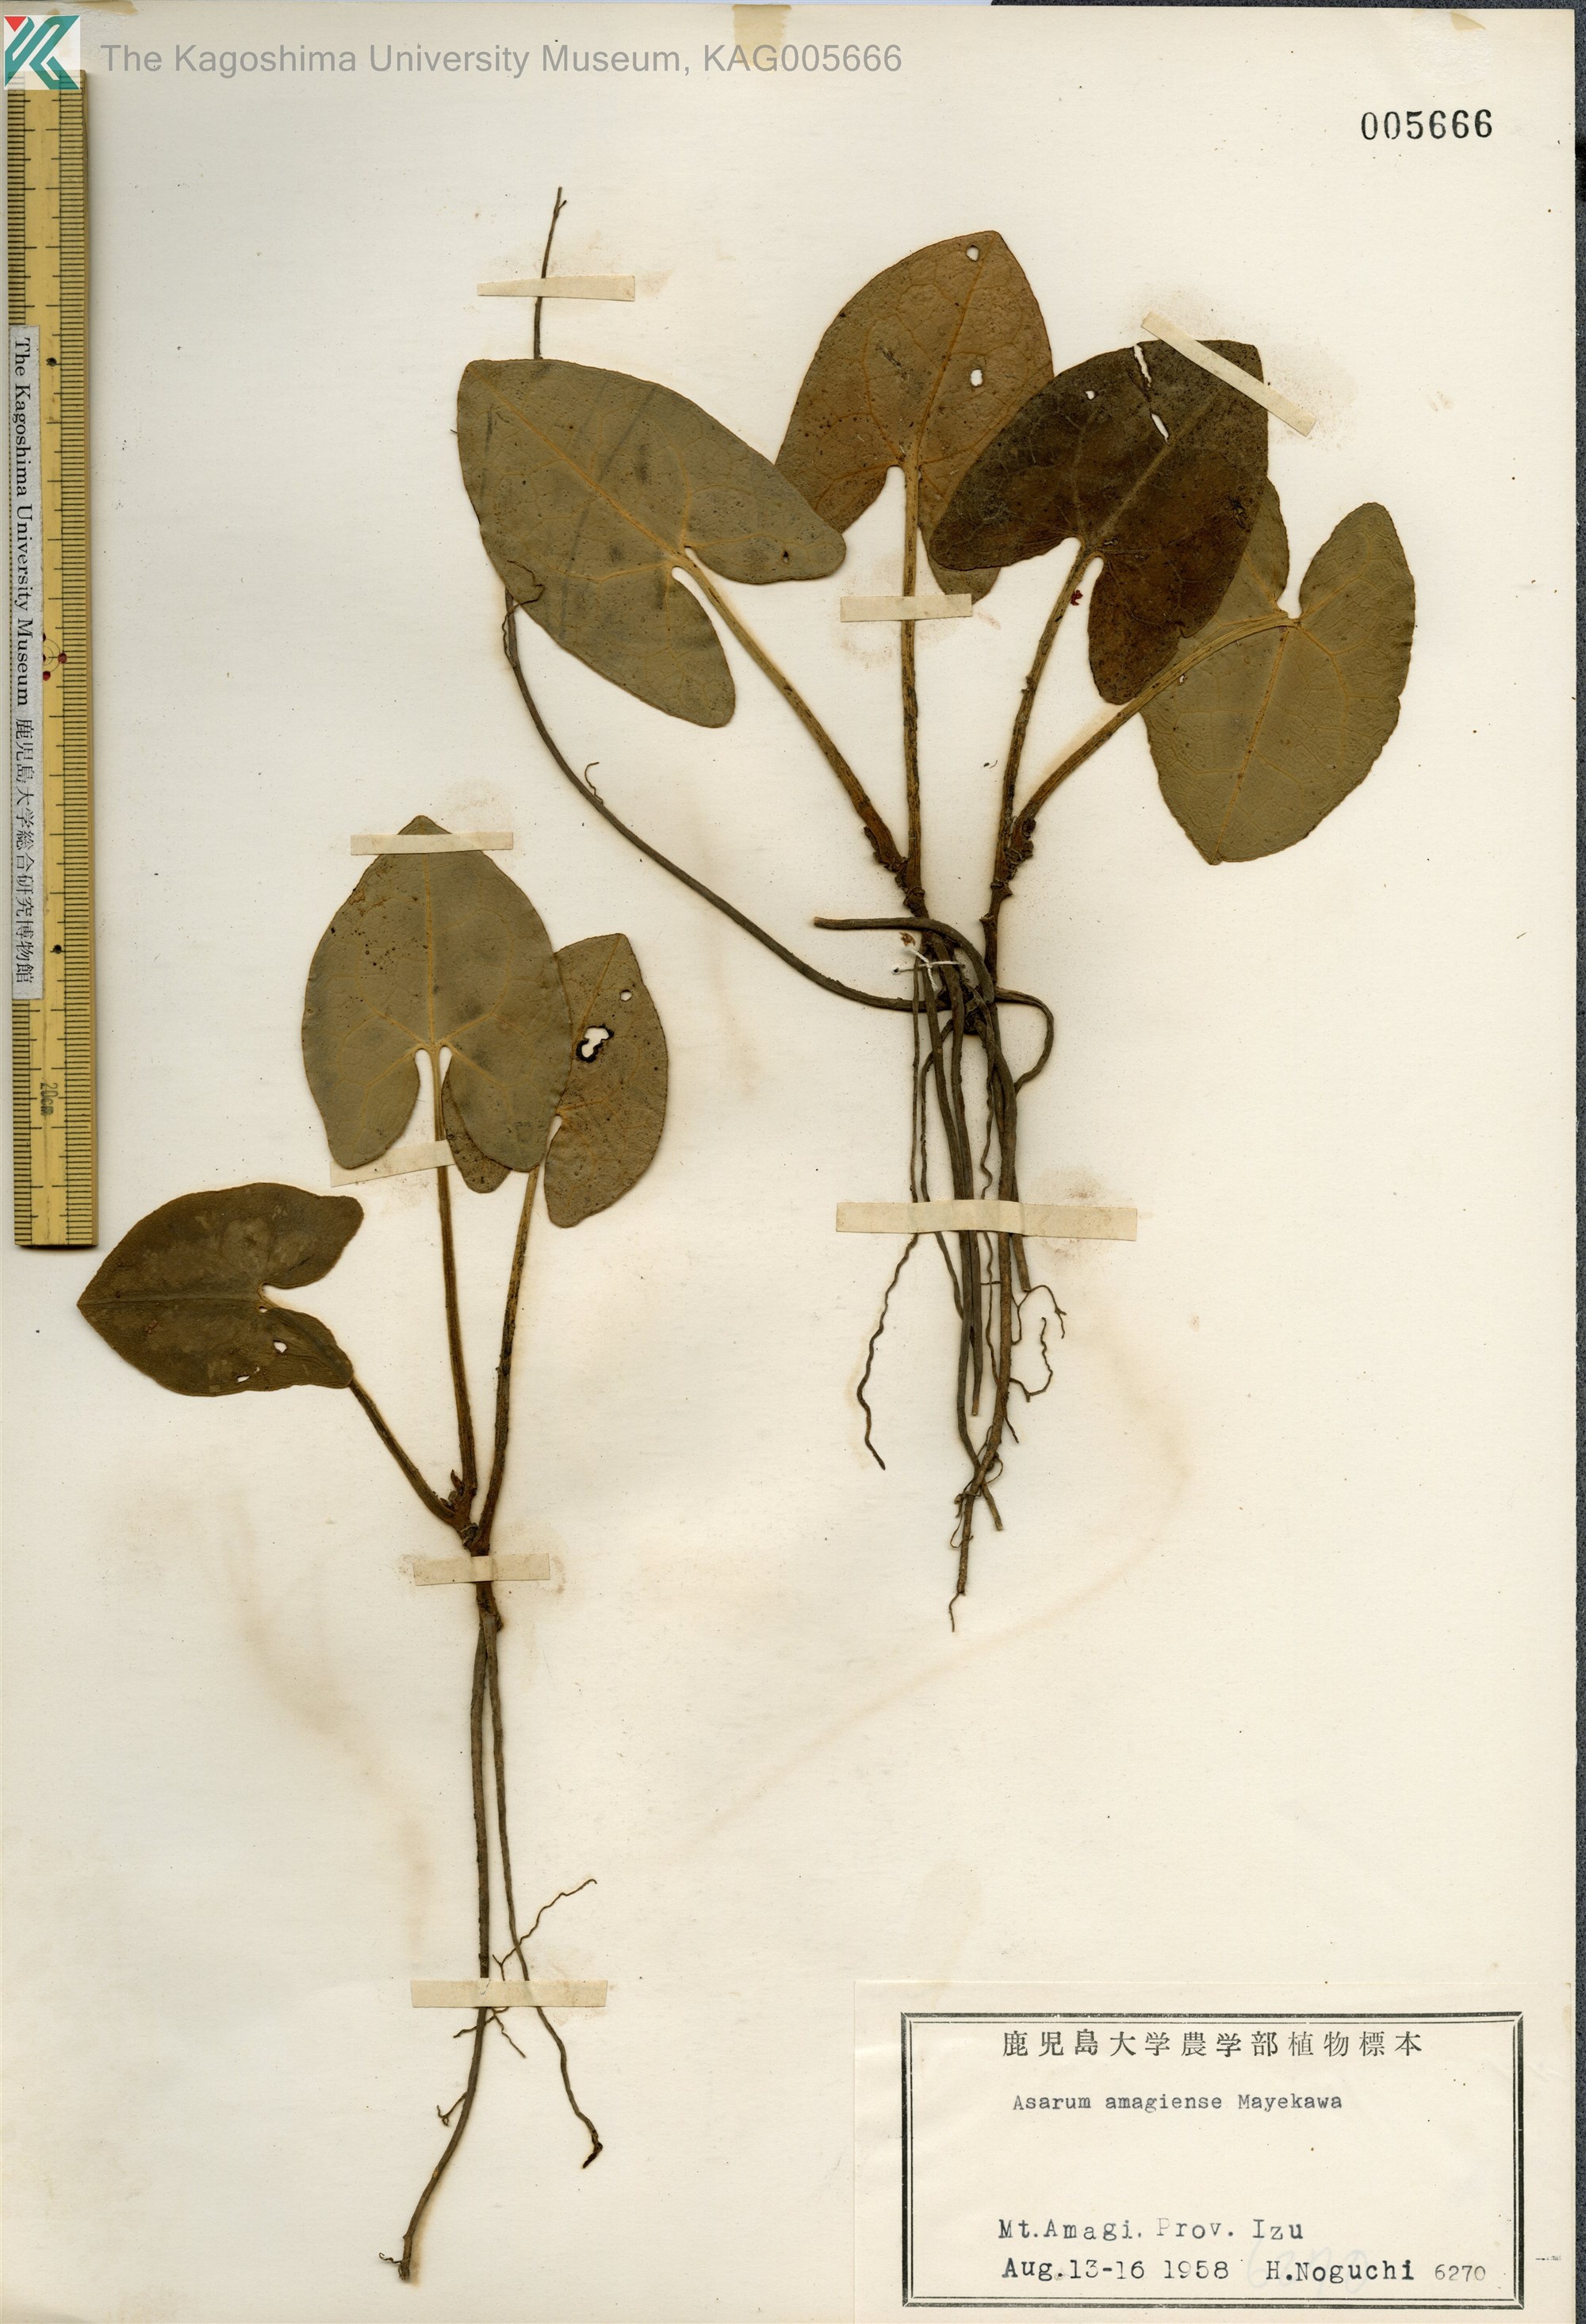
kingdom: Plantae
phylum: Tracheophyta
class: Magnoliopsida
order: Piperales
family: Aristolochiaceae
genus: Asarum
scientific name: Asarum savatieri
